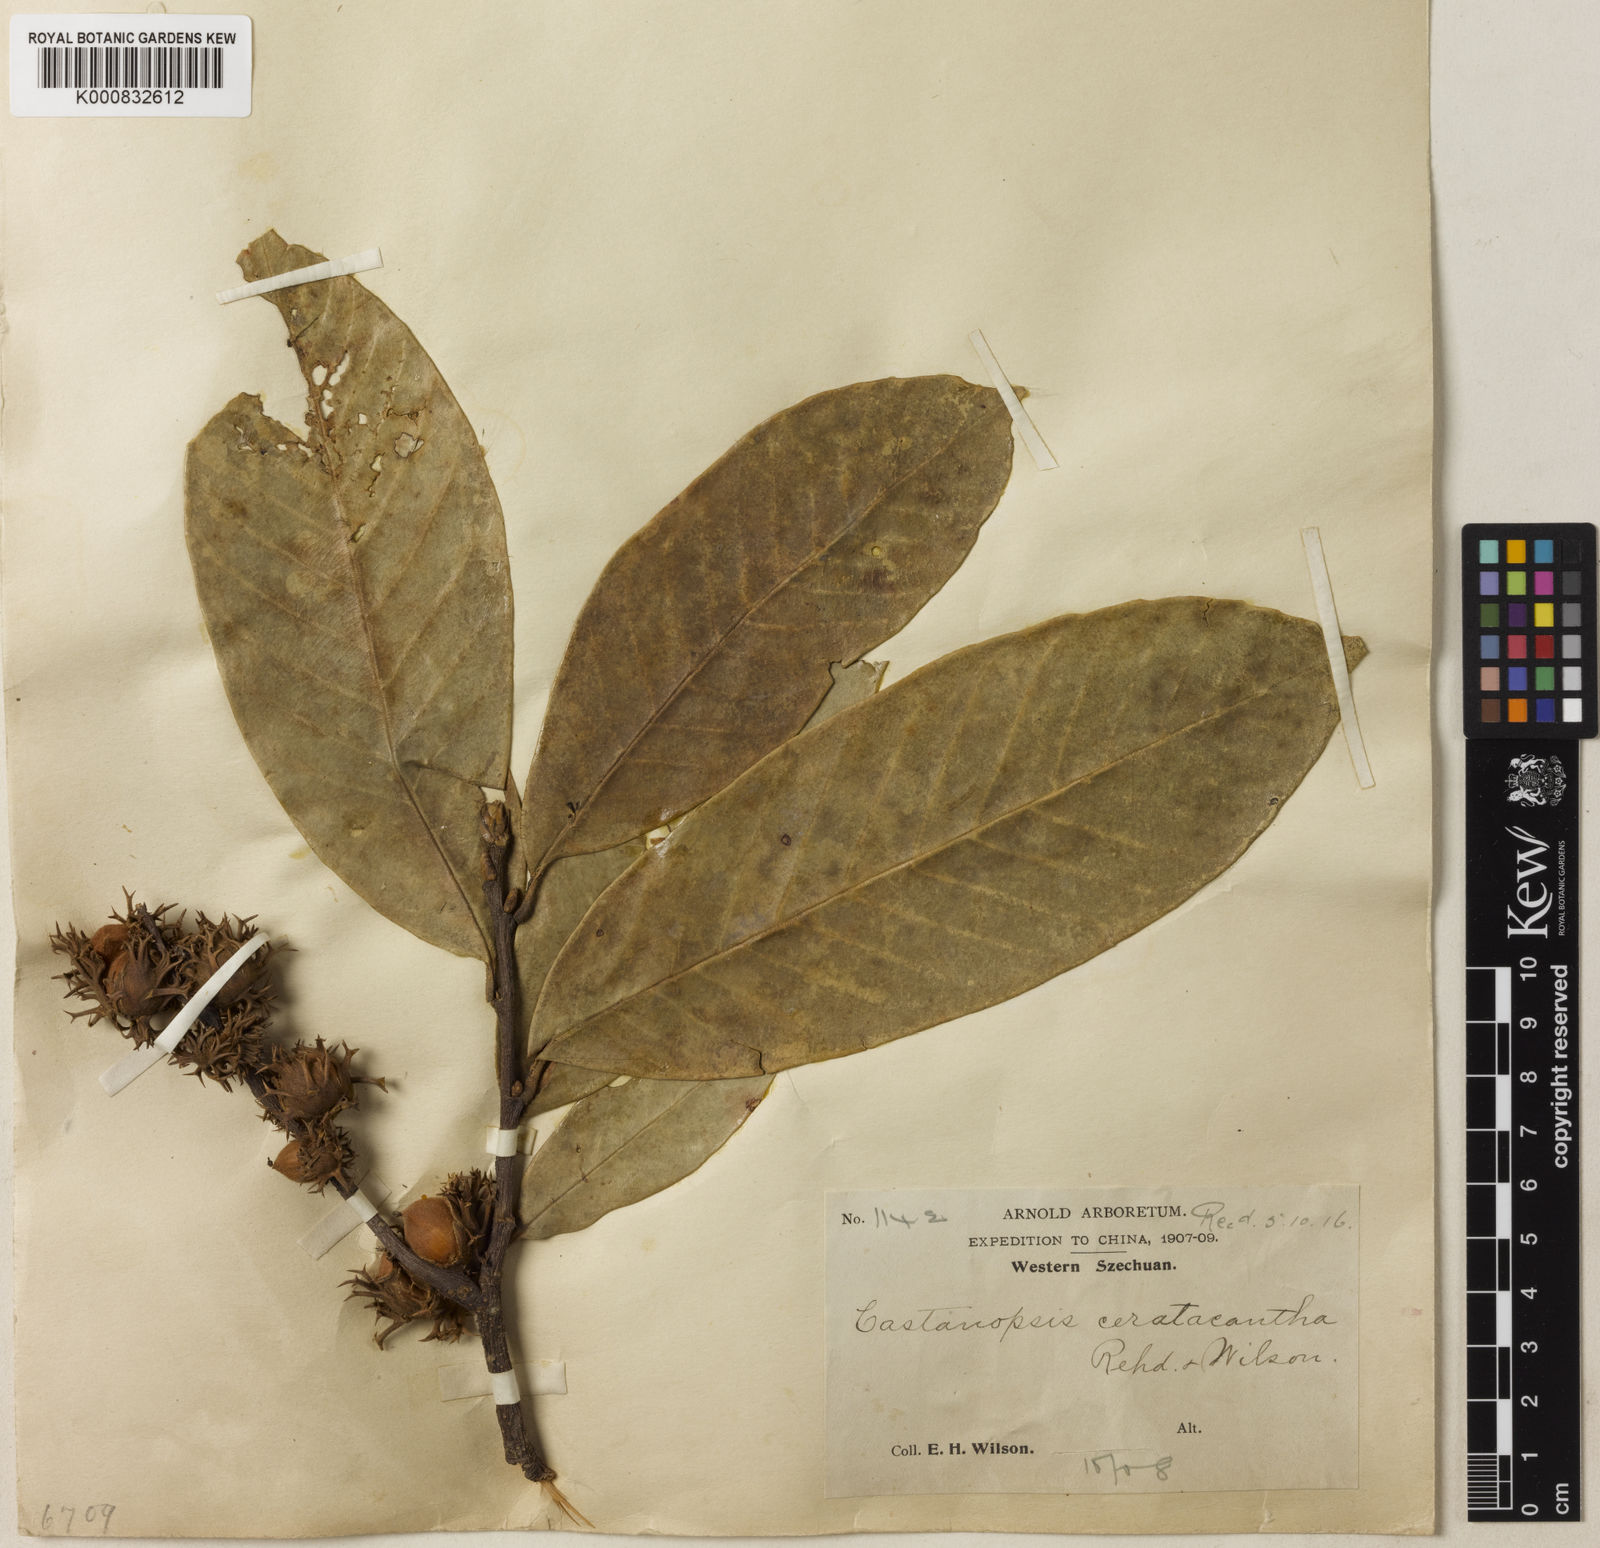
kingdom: Plantae
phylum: Tracheophyta
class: Magnoliopsida
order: Fagales
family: Fagaceae
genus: Castanopsis
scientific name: Castanopsis ceratacantha
